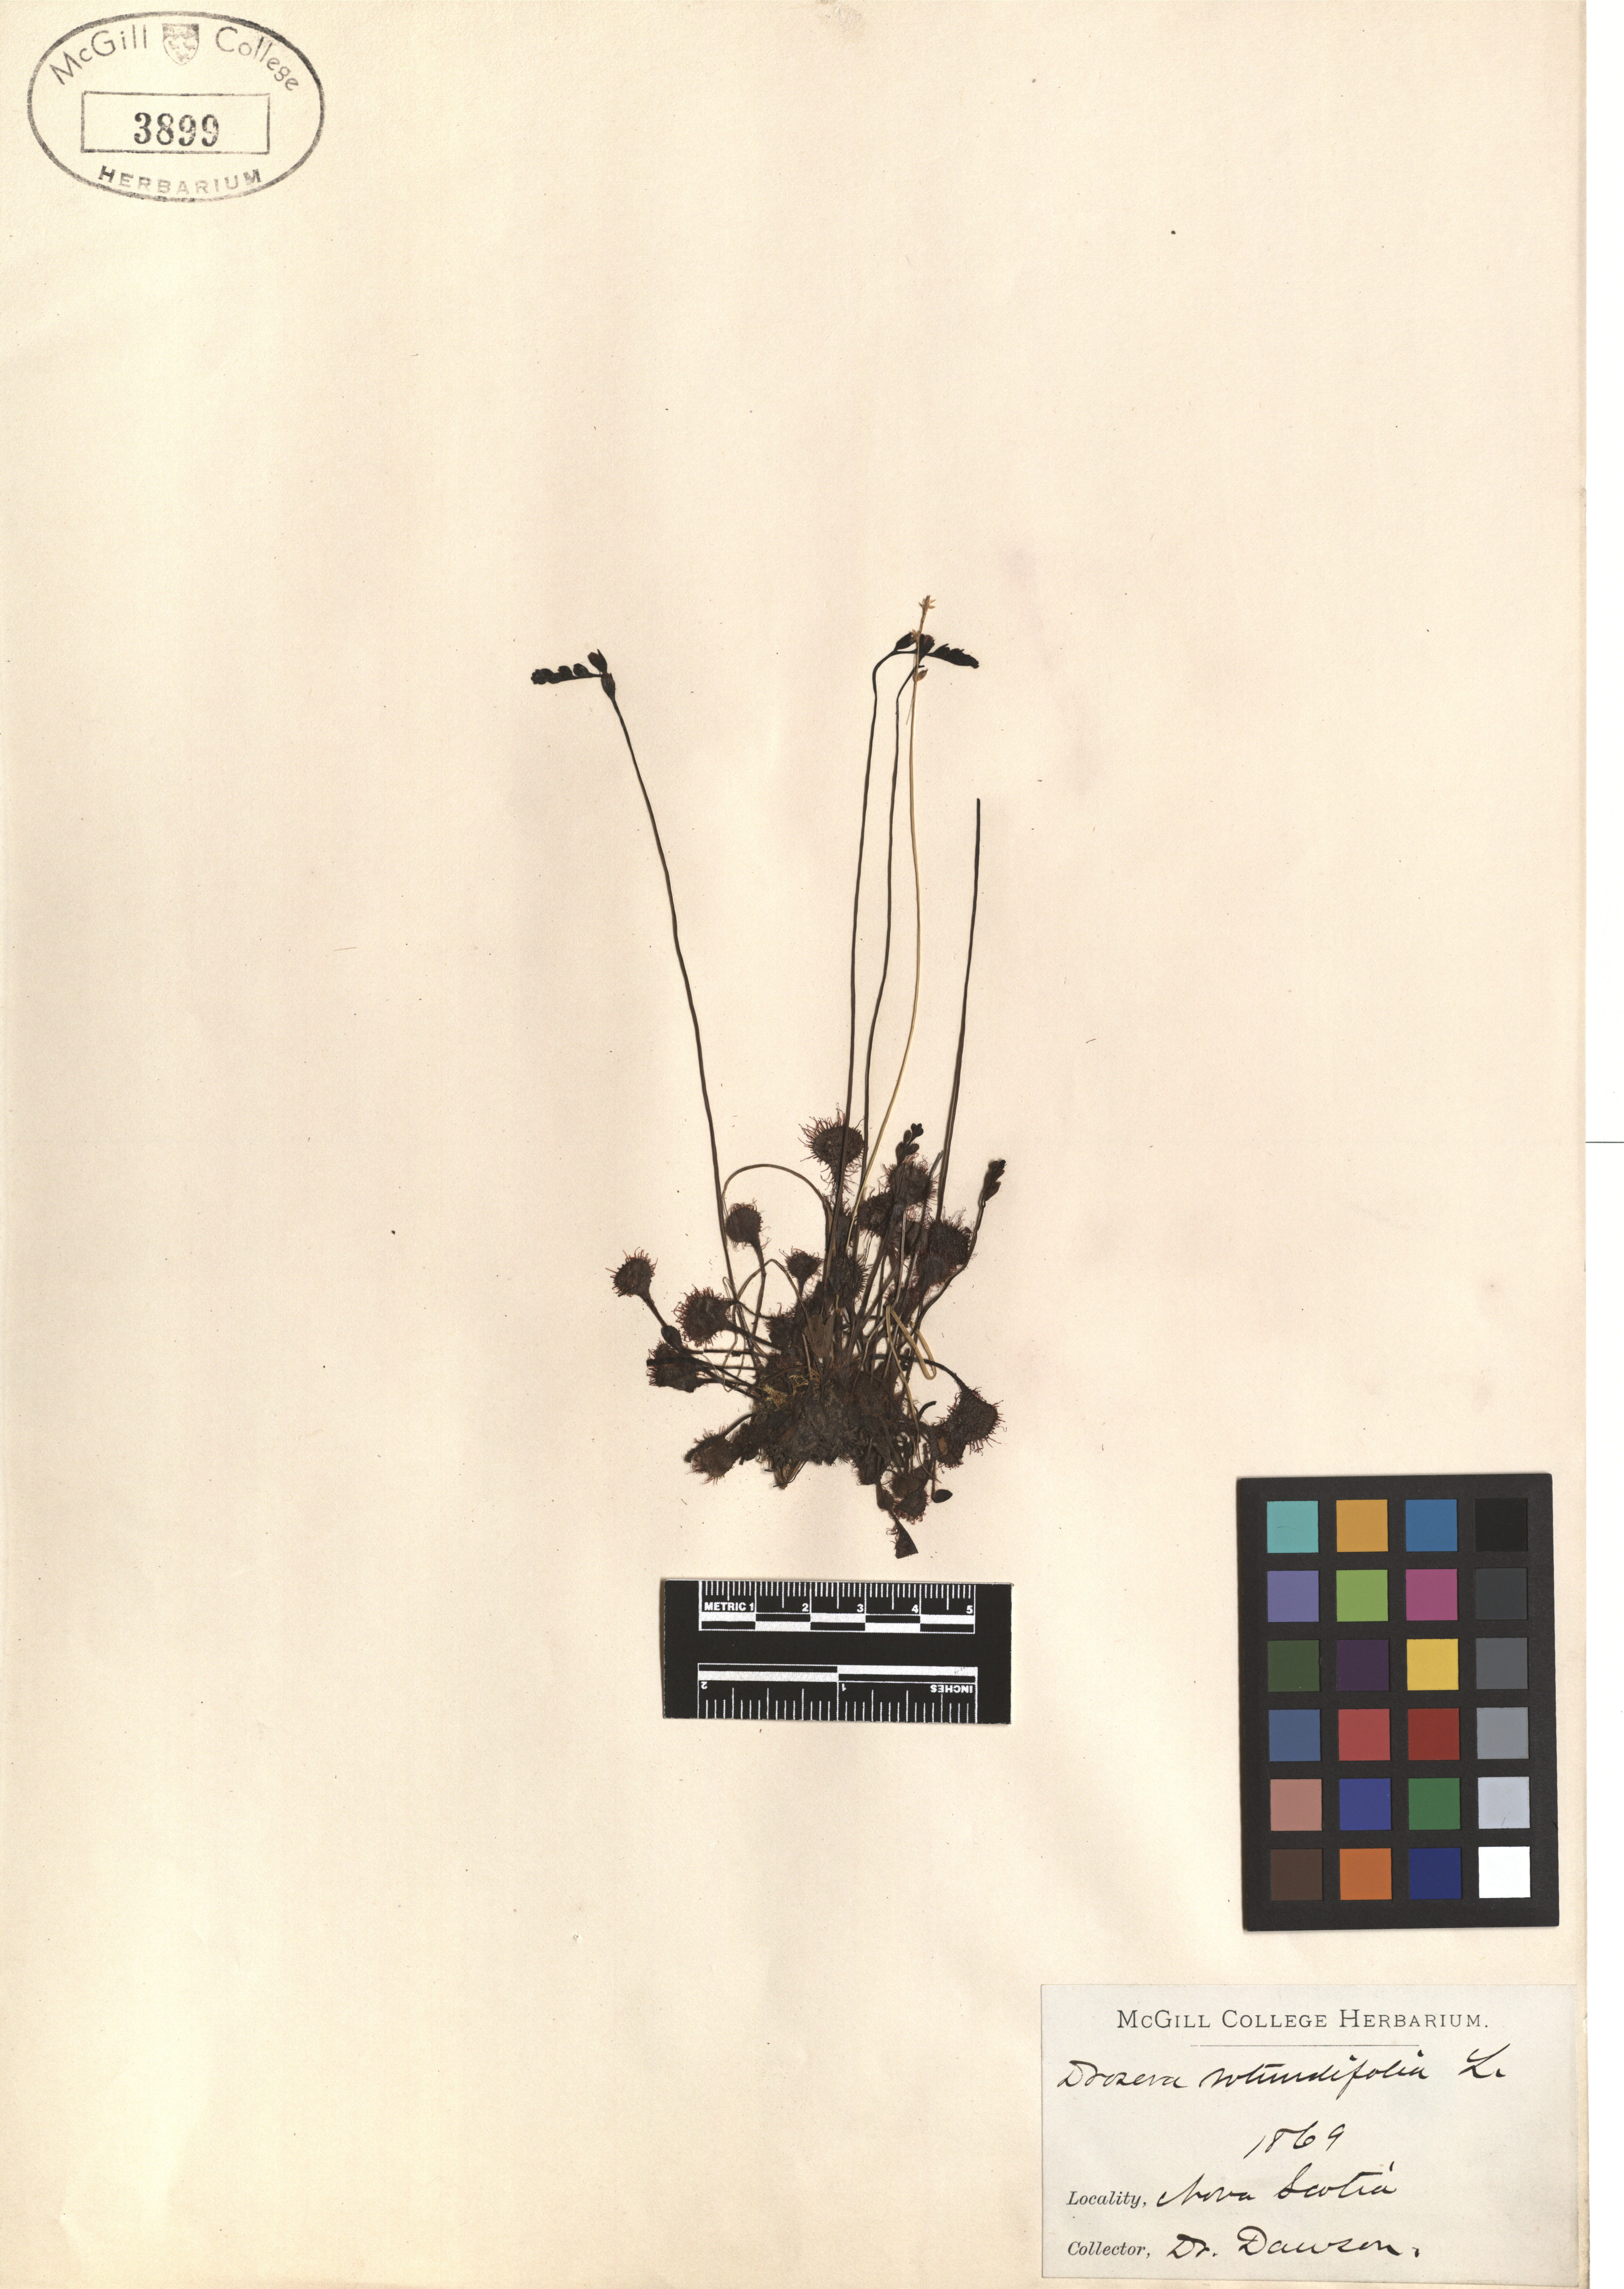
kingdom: Plantae
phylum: Tracheophyta
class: Magnoliopsida
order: Caryophyllales
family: Droseraceae
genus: Drosera
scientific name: Drosera rotundifolia
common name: Round-leaved sundew
